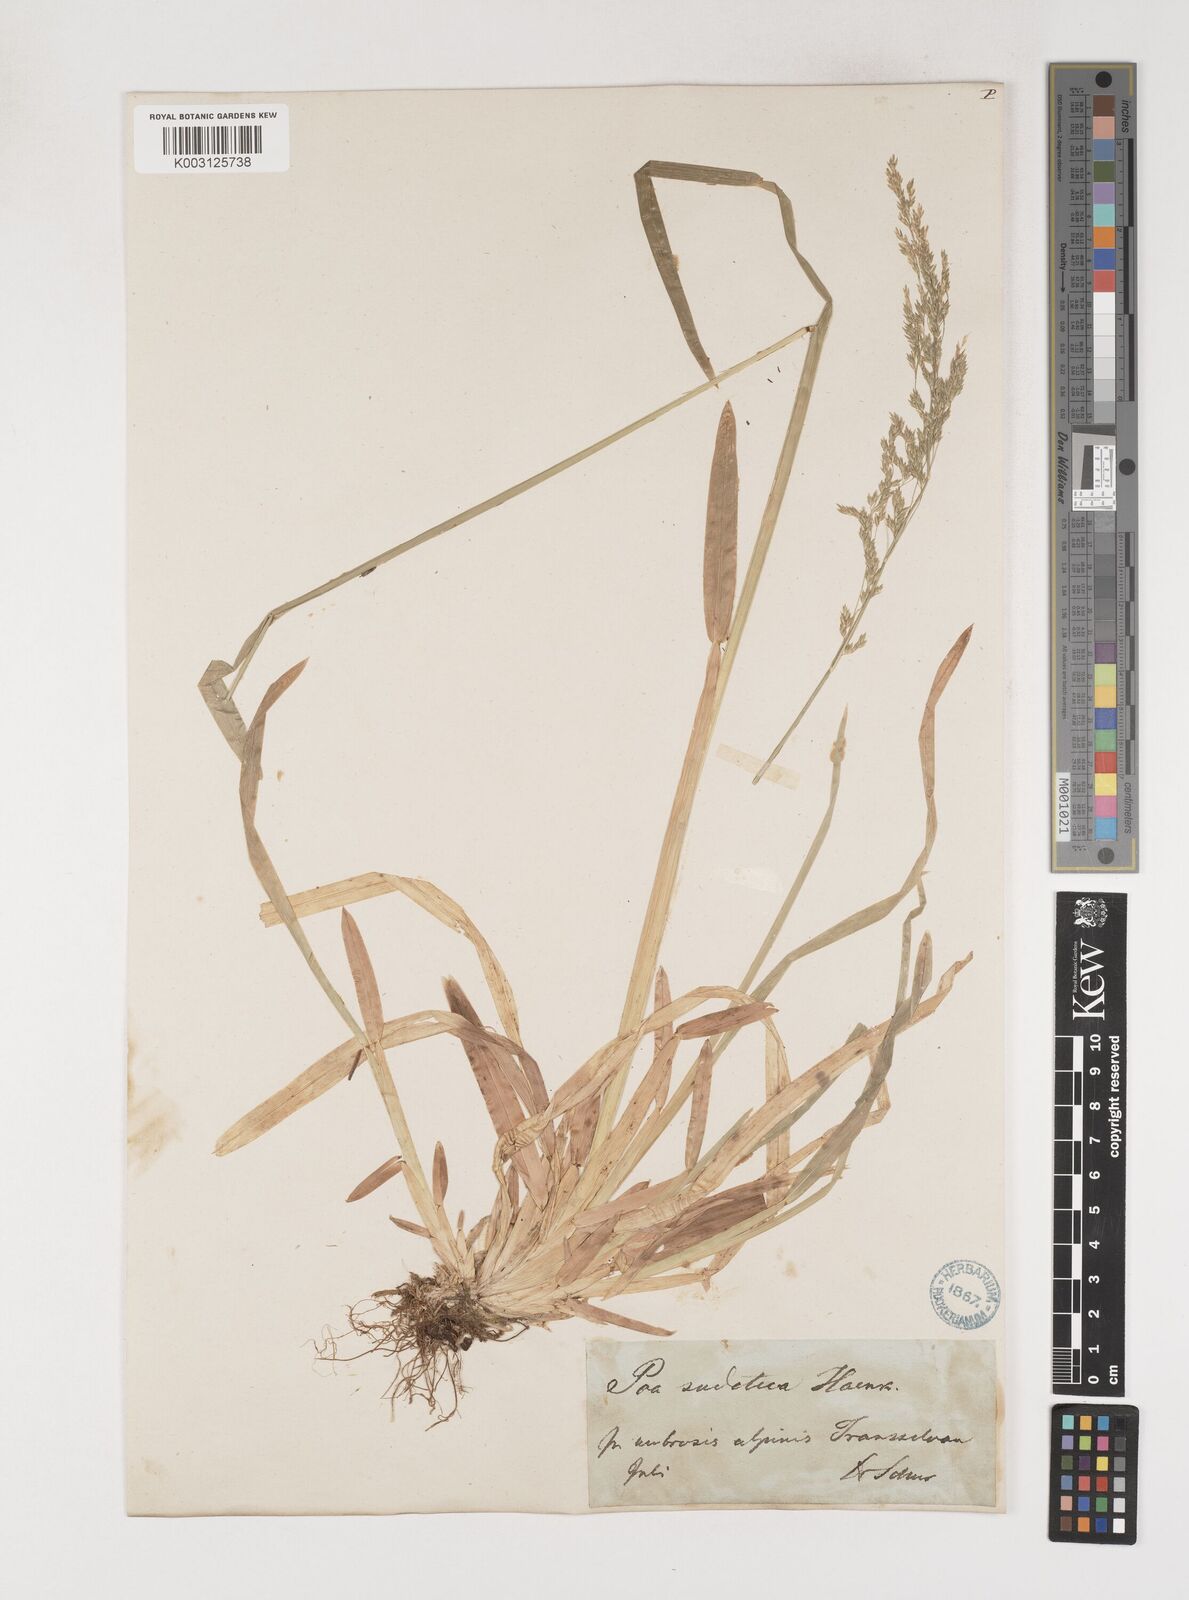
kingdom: Plantae
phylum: Tracheophyta
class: Liliopsida
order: Poales
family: Poaceae
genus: Poa
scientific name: Poa chaixii
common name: Broad-leaved meadow-grass
